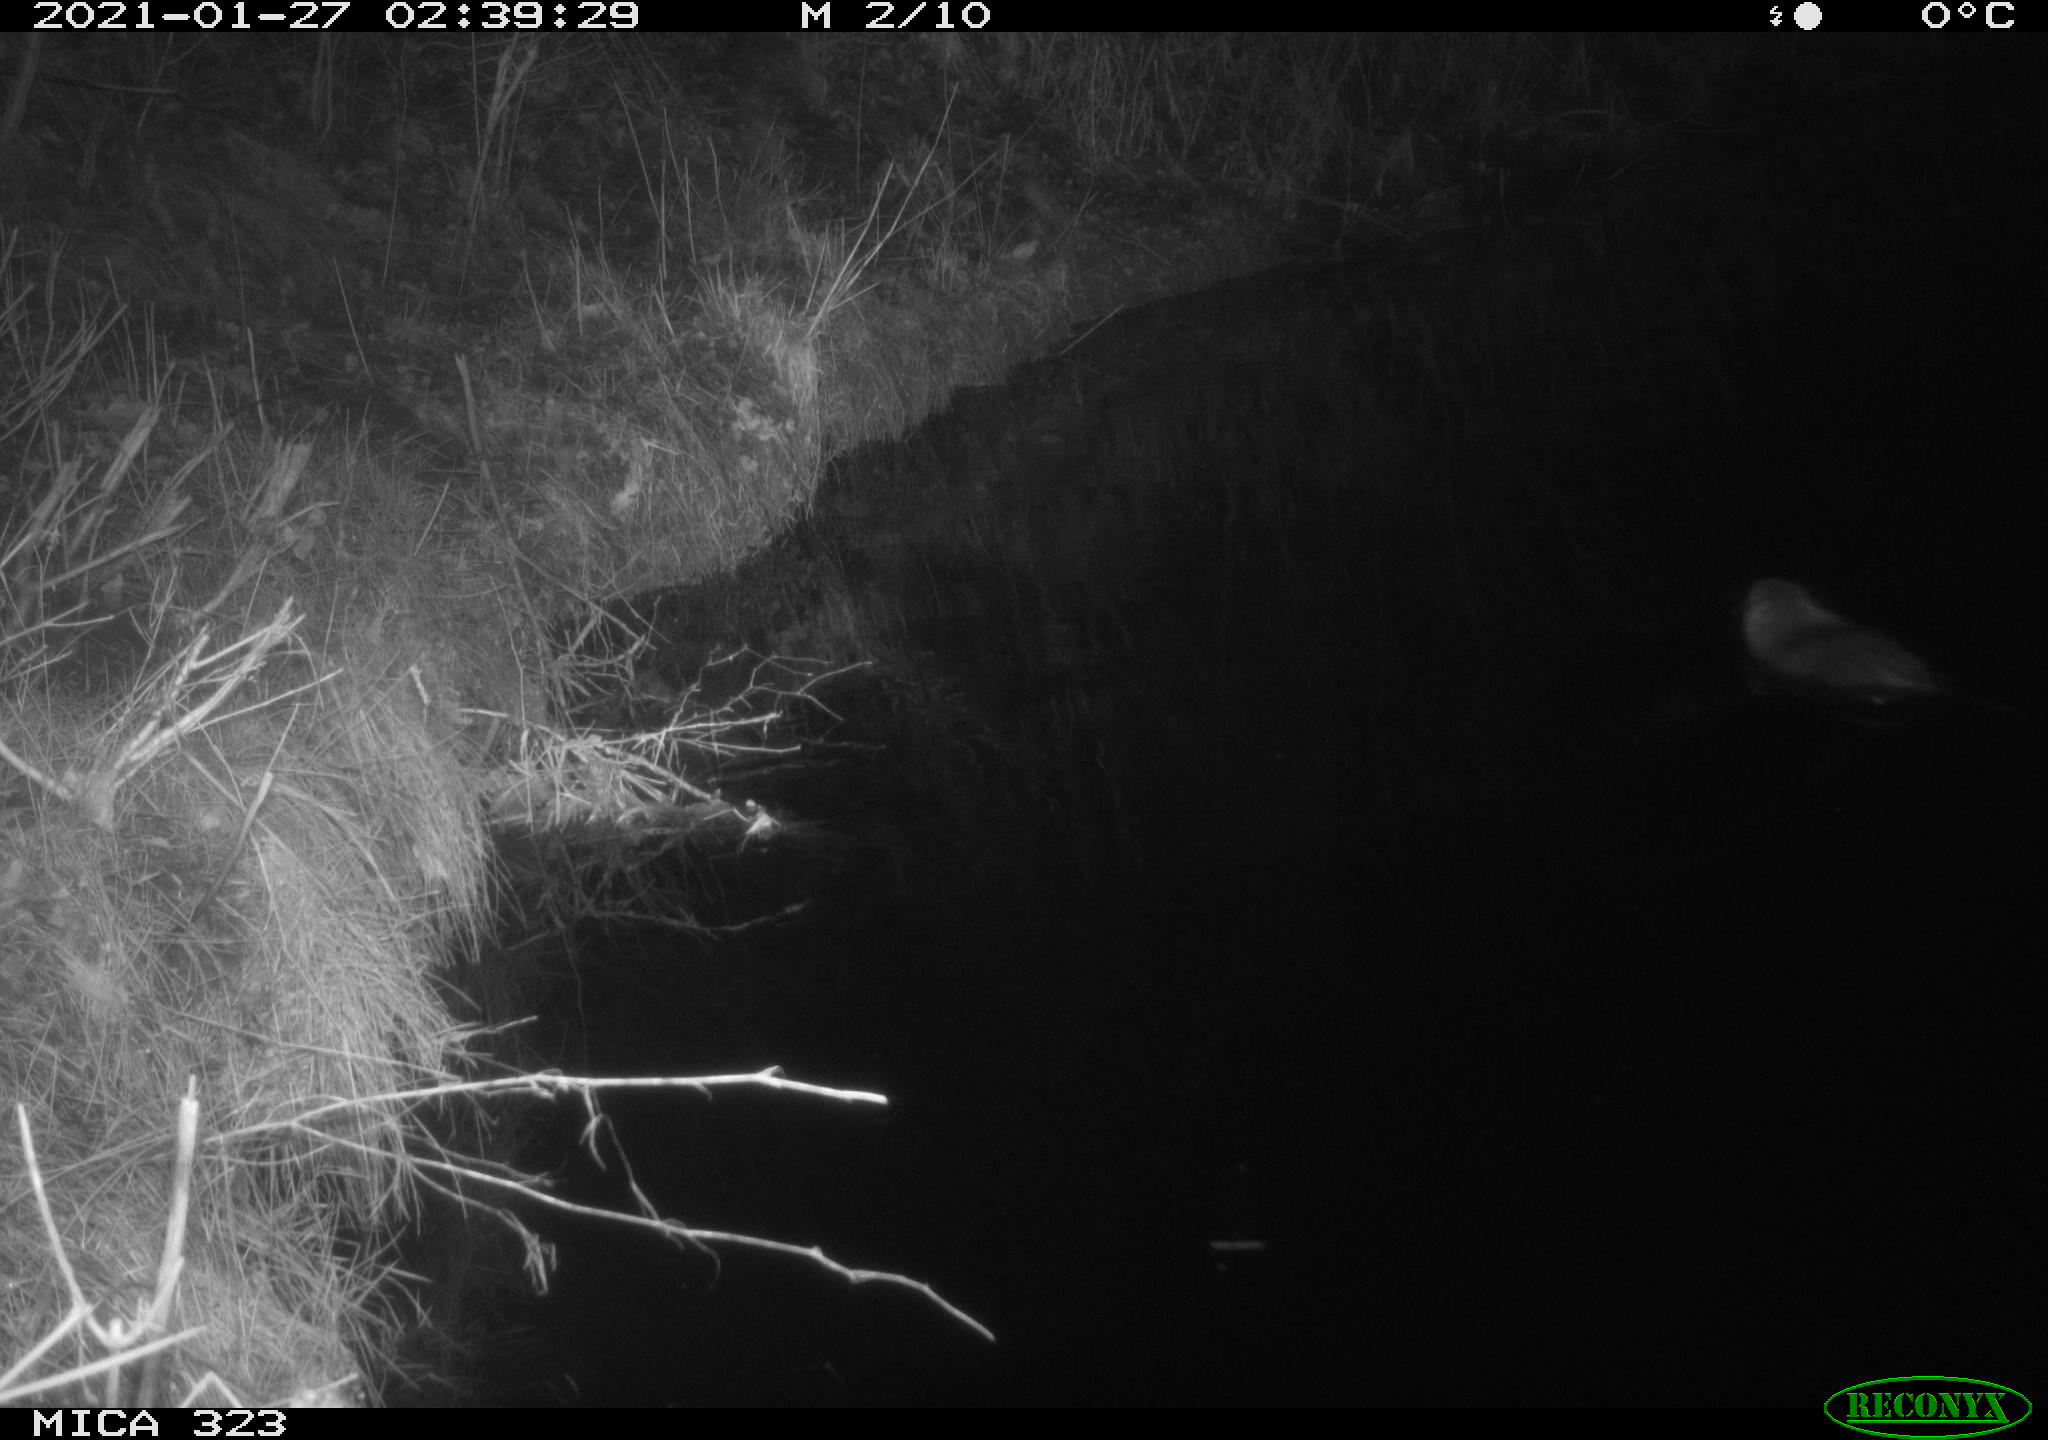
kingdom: Animalia
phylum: Chordata
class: Mammalia
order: Rodentia
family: Myocastoridae
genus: Myocastor
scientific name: Myocastor coypus
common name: Coypu
